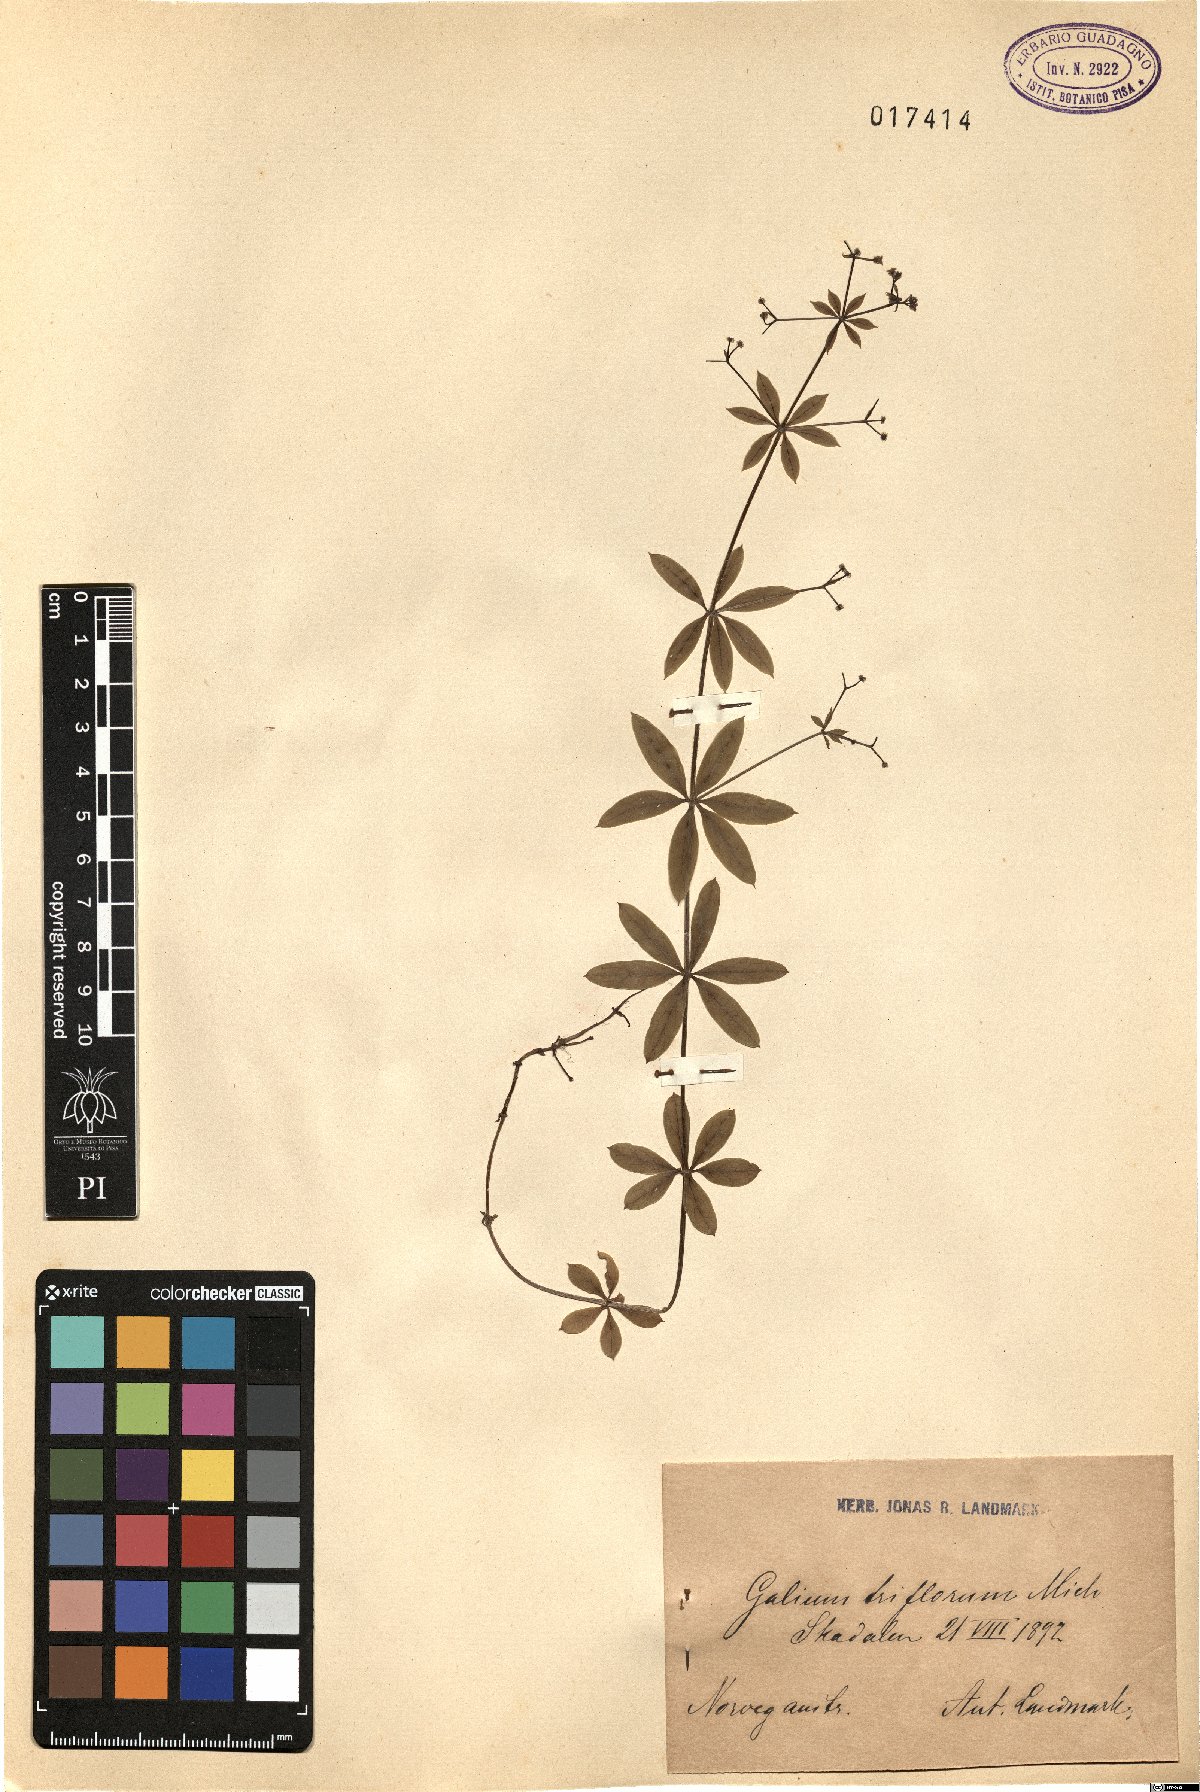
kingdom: Plantae
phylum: Tracheophyta
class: Magnoliopsida
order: Gentianales
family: Rubiaceae
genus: Galium
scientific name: Galium triflorum
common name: Fragrant bedstraw
